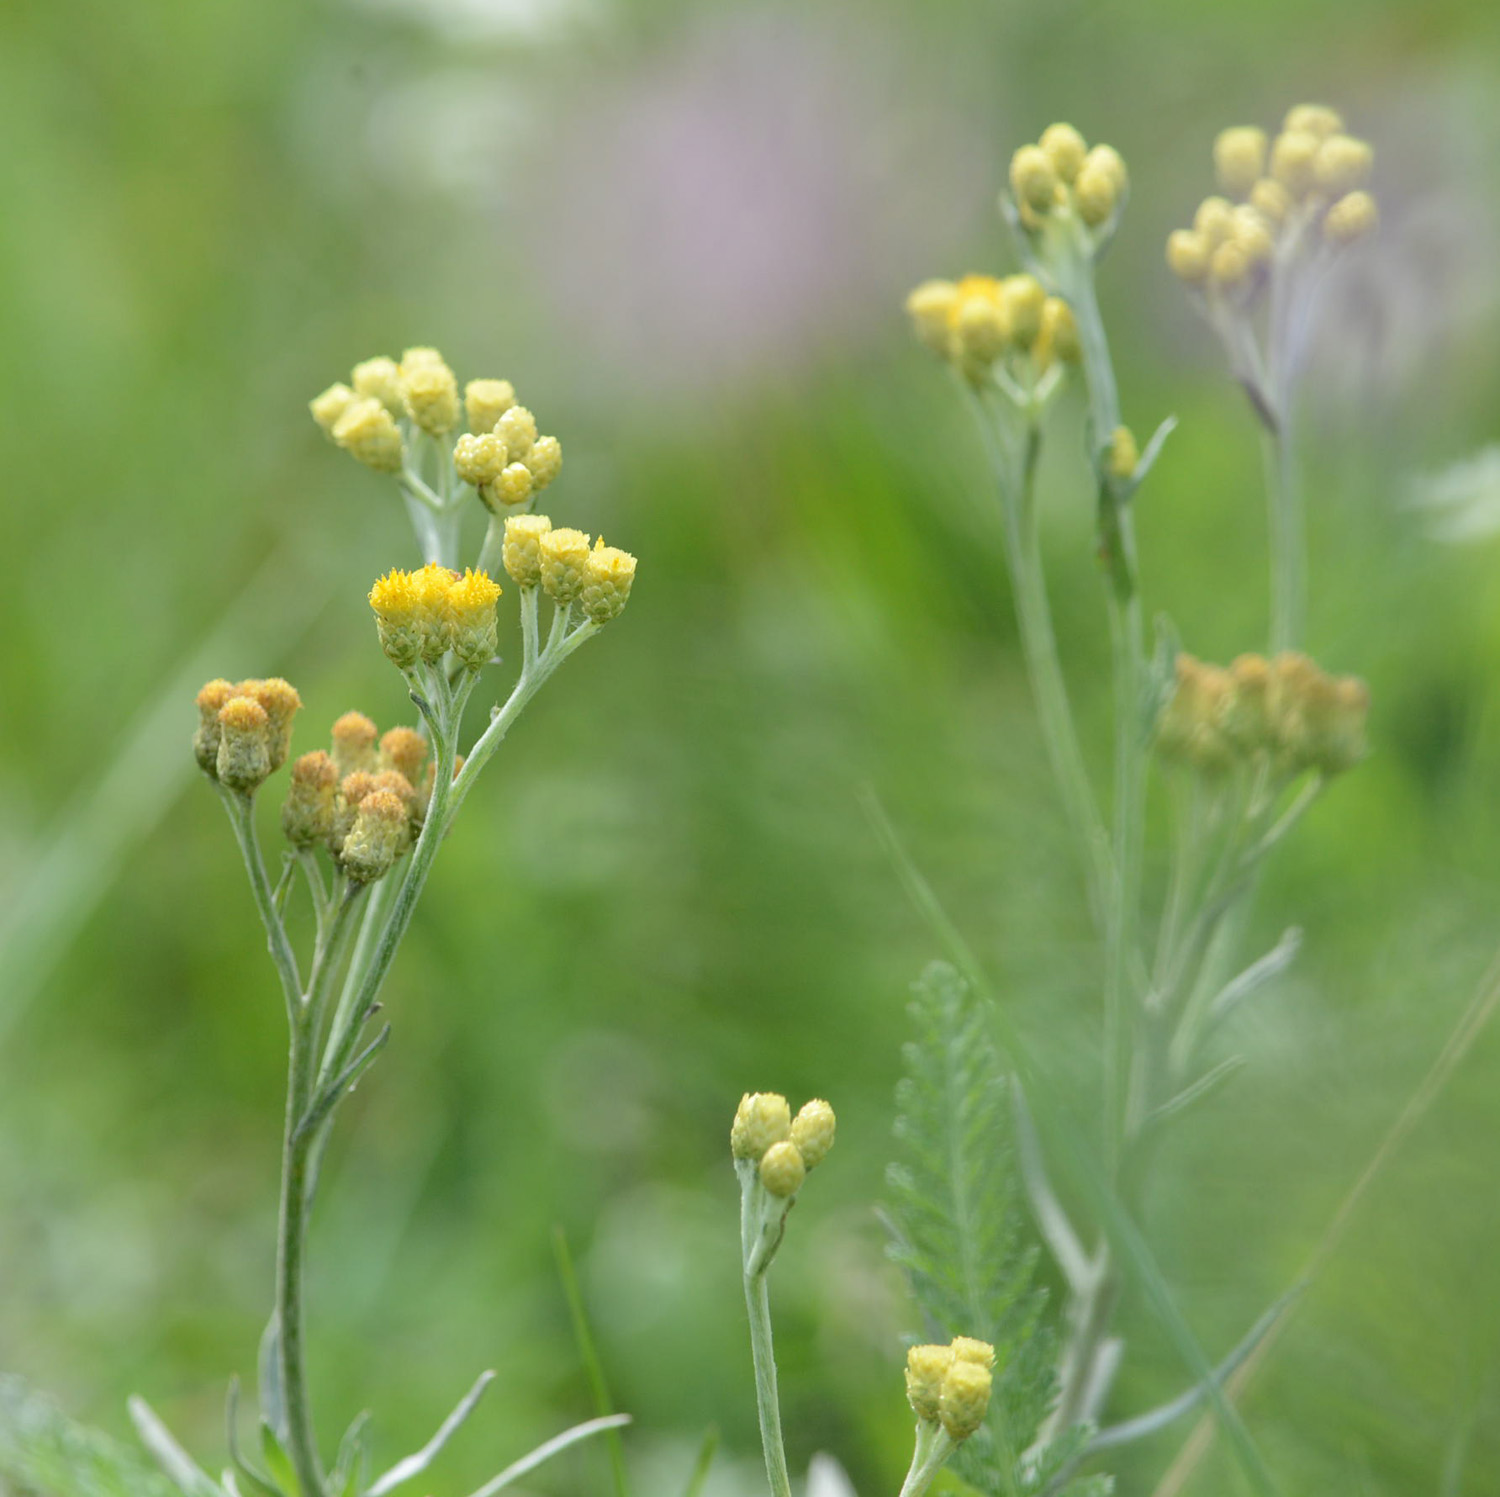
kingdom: Plantae
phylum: Tracheophyta
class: Magnoliopsida
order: Asterales
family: Asteraceae
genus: Helichrysum
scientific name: Helichrysum arenarium
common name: Strawflower
